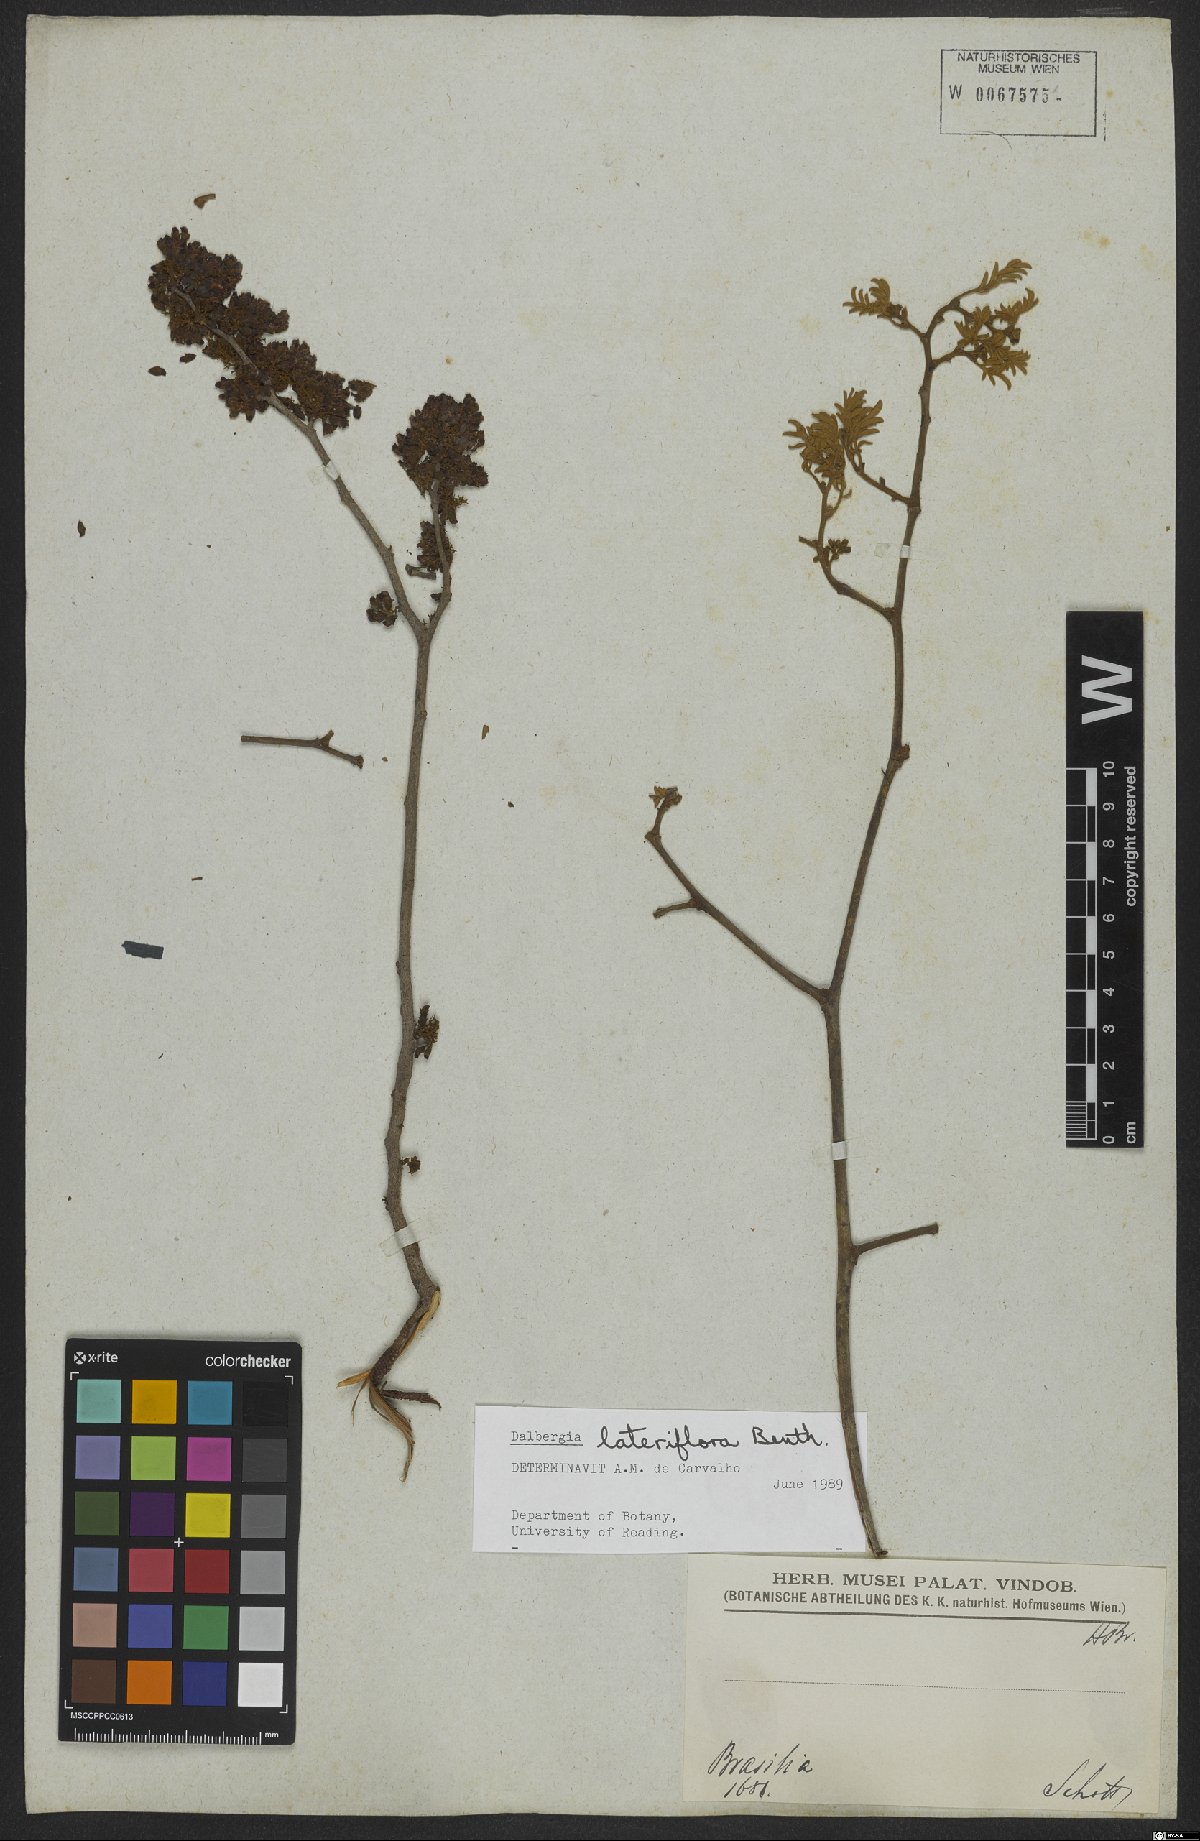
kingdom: Plantae
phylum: Tracheophyta
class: Magnoliopsida
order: Fabales
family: Fabaceae
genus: Dalbergia
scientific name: Dalbergia lateriflora
